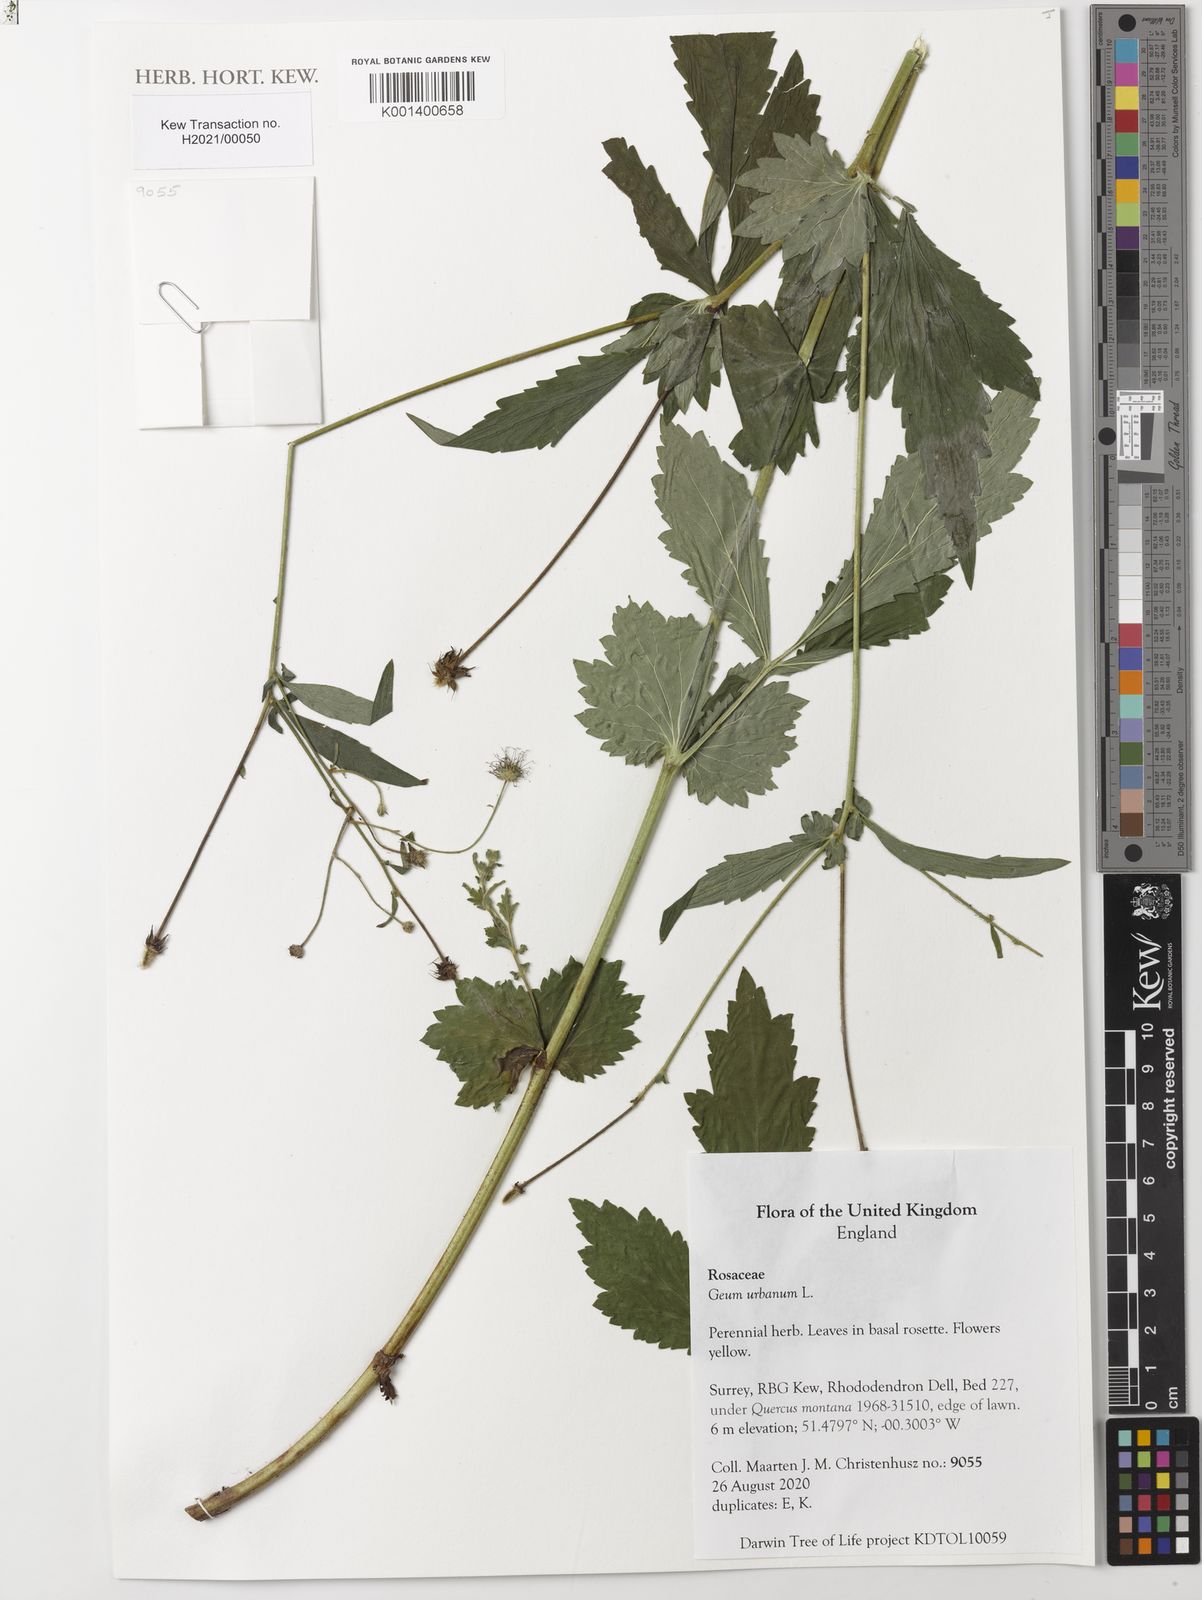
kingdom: Plantae
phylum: Tracheophyta
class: Magnoliopsida
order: Rosales
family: Rosaceae
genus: Geum
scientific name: Geum urbanum
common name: Wood avens
